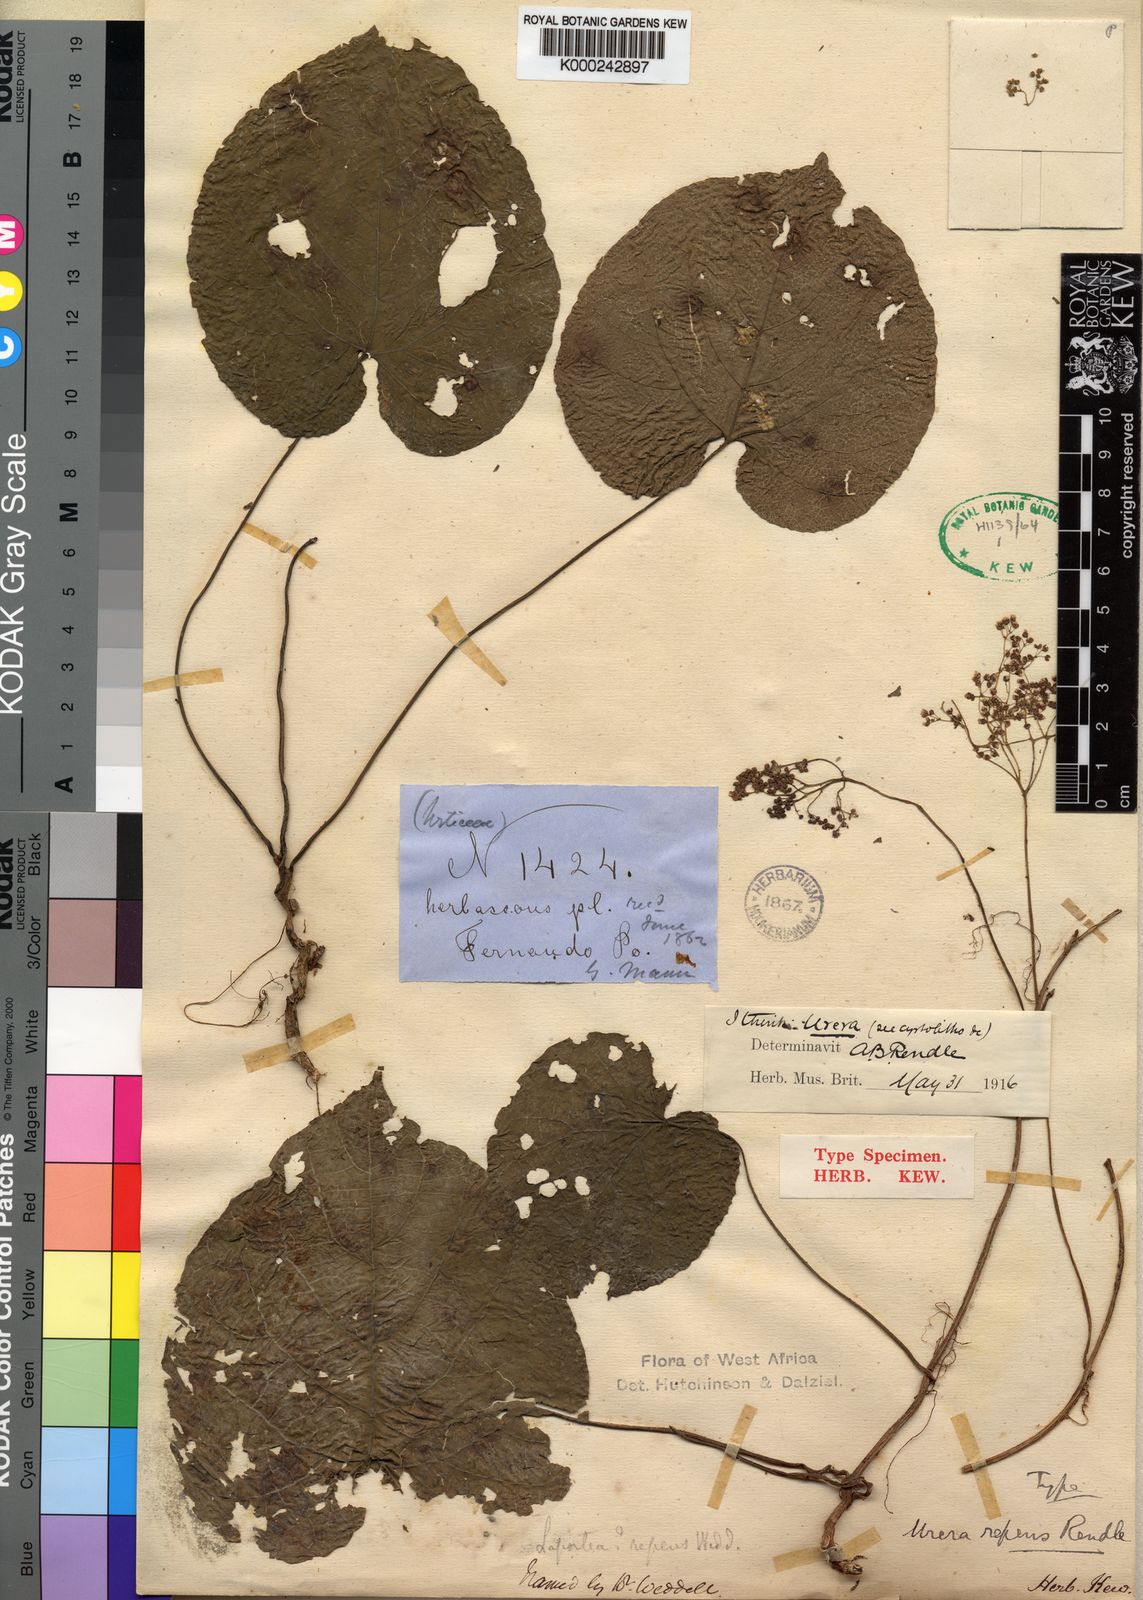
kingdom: Plantae
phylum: Tracheophyta
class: Magnoliopsida
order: Rosales
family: Urticaceae
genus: Scepocarpus
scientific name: Scepocarpus
